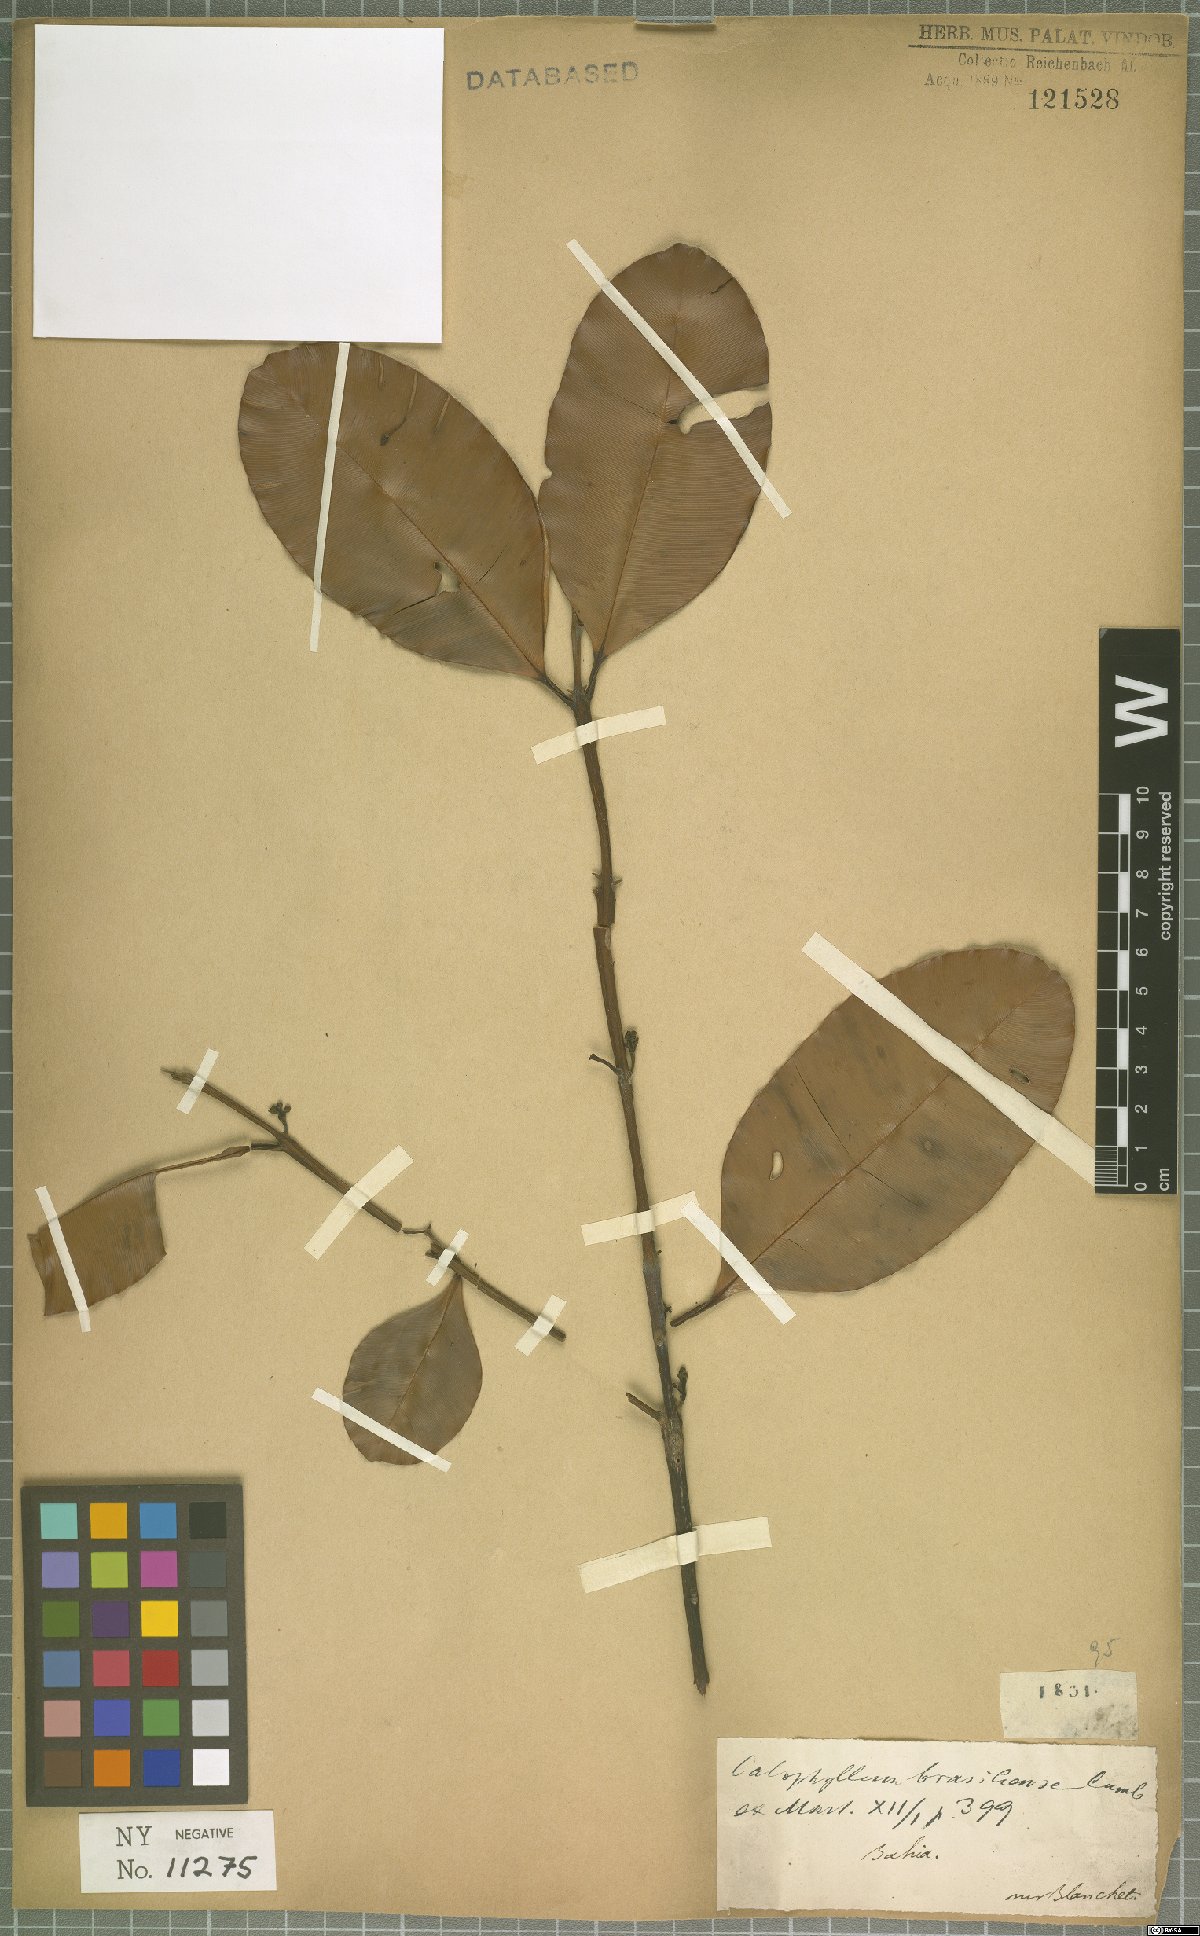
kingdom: Plantae
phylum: Tracheophyta
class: Magnoliopsida
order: Malpighiales
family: Calophyllaceae
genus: Calophyllum
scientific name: Calophyllum brasiliense
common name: Santa maria
